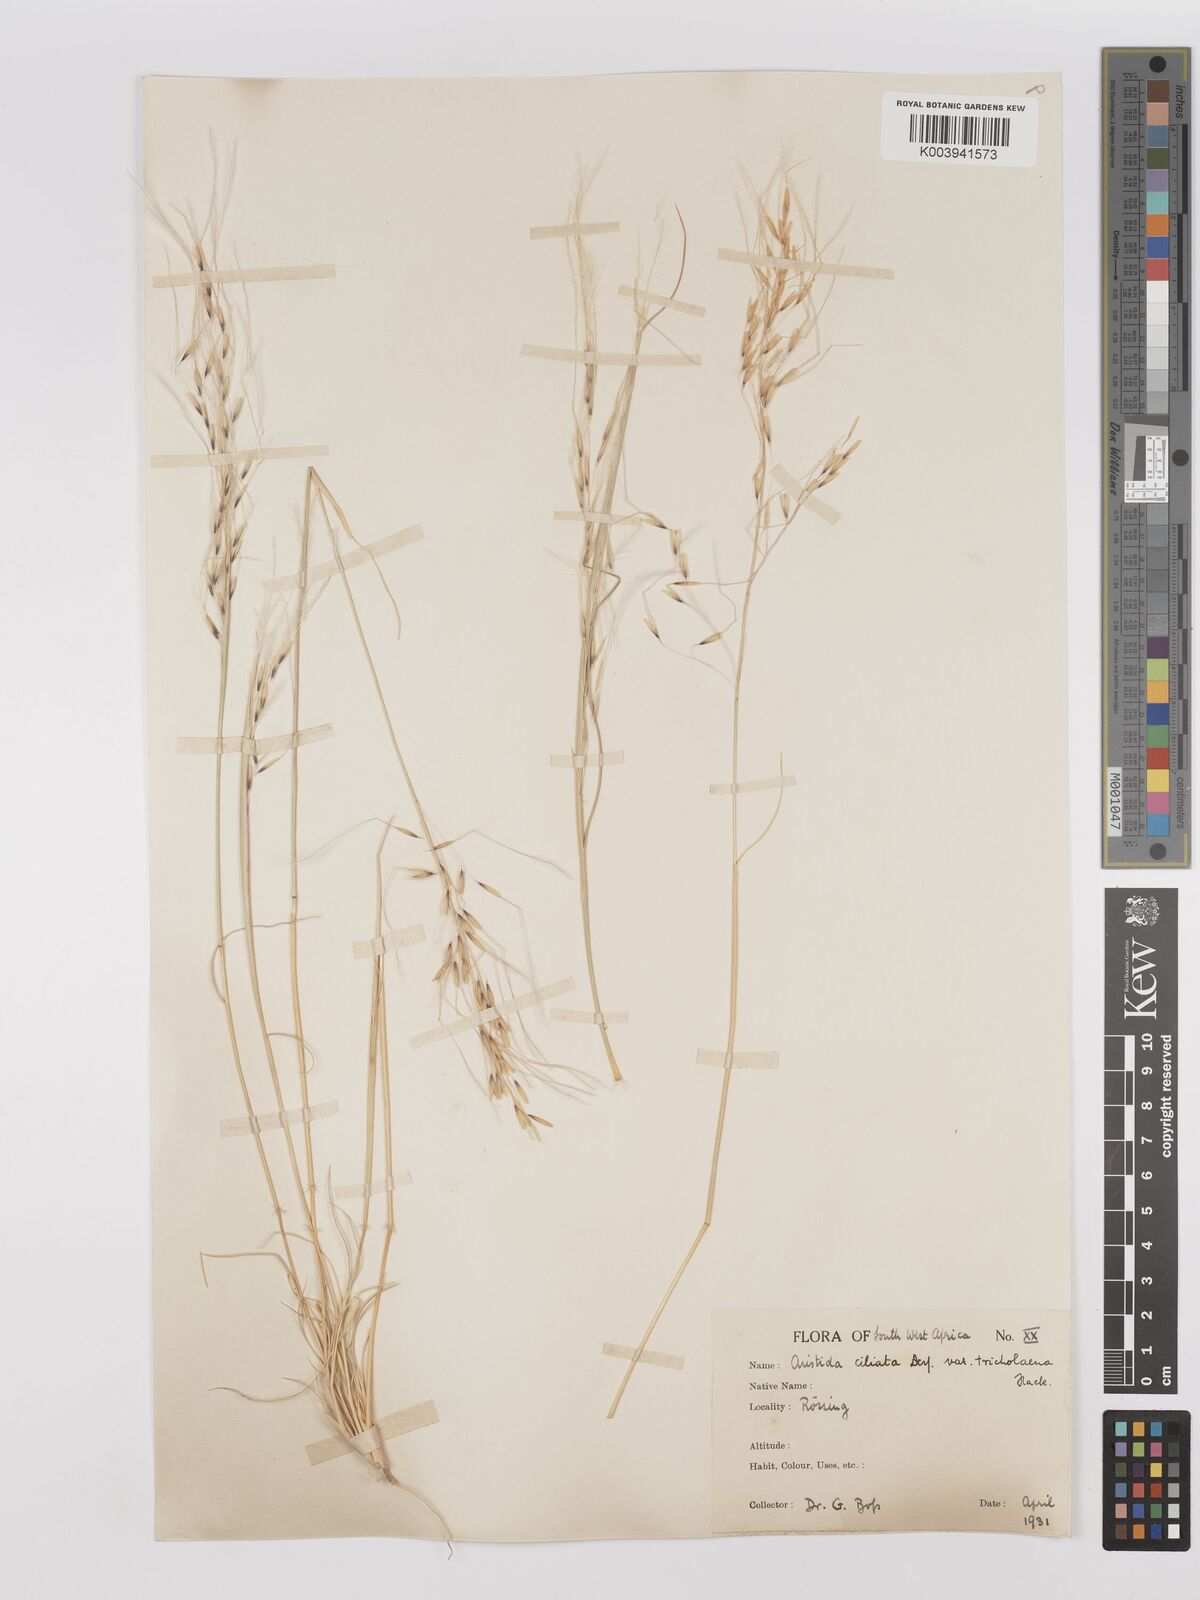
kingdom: Plantae
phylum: Tracheophyta
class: Liliopsida
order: Poales
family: Poaceae
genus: Stipagrostis
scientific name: Stipagrostis ciliata
